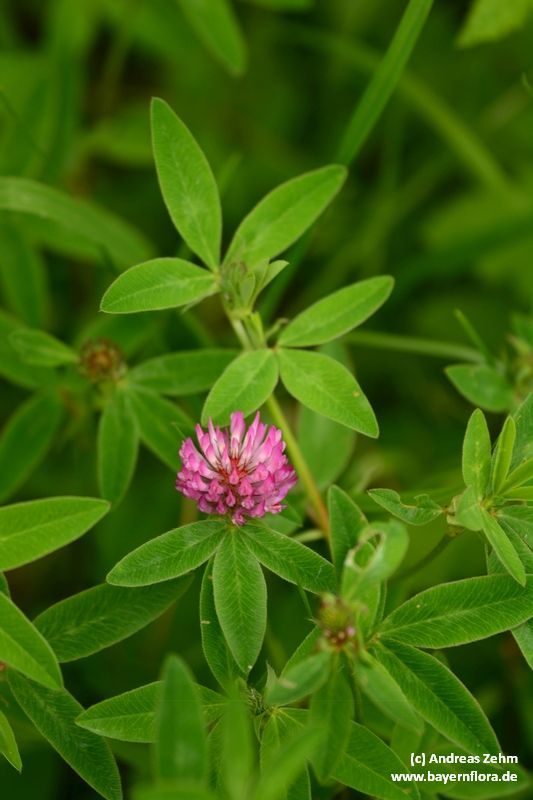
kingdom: Plantae
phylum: Tracheophyta
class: Magnoliopsida
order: Fabales
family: Fabaceae
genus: Trifolium
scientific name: Trifolium medium
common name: Zigzag clover
